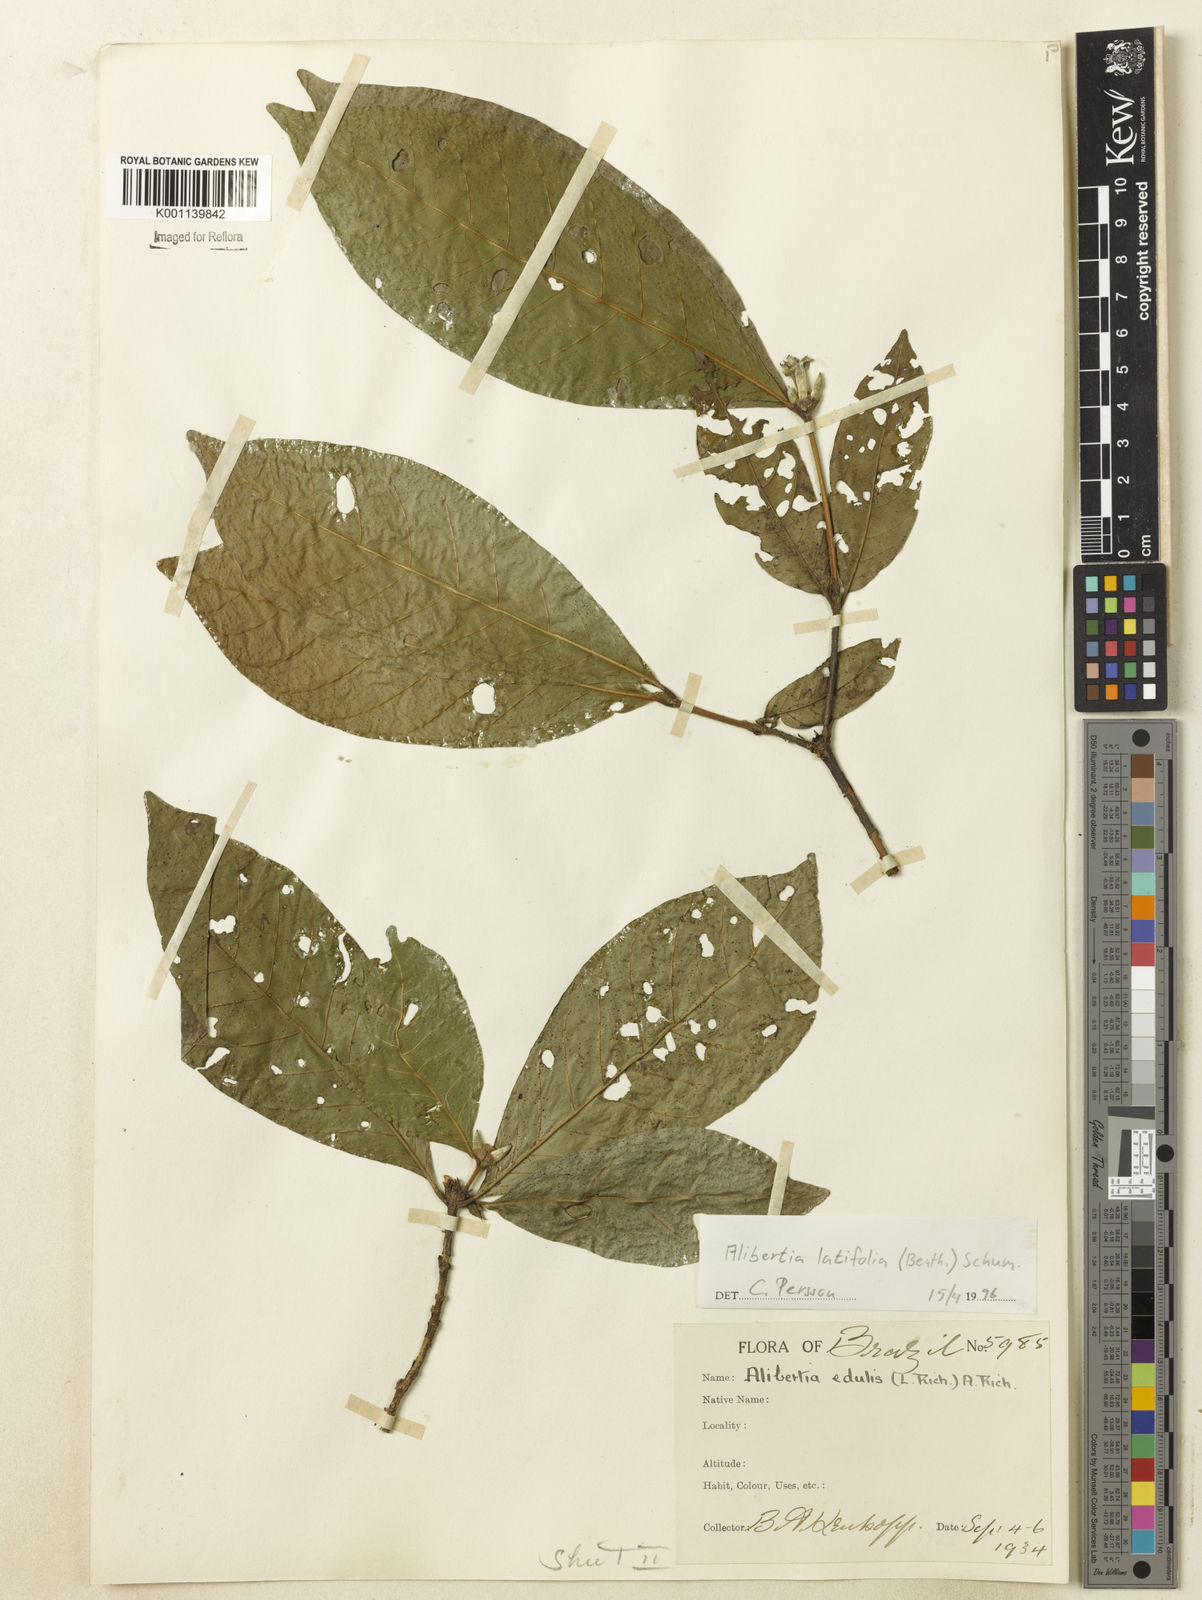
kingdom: Plantae
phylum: Tracheophyta
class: Magnoliopsida
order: Gentianales
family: Rubiaceae
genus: Alibertia
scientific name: Alibertia latifolia
